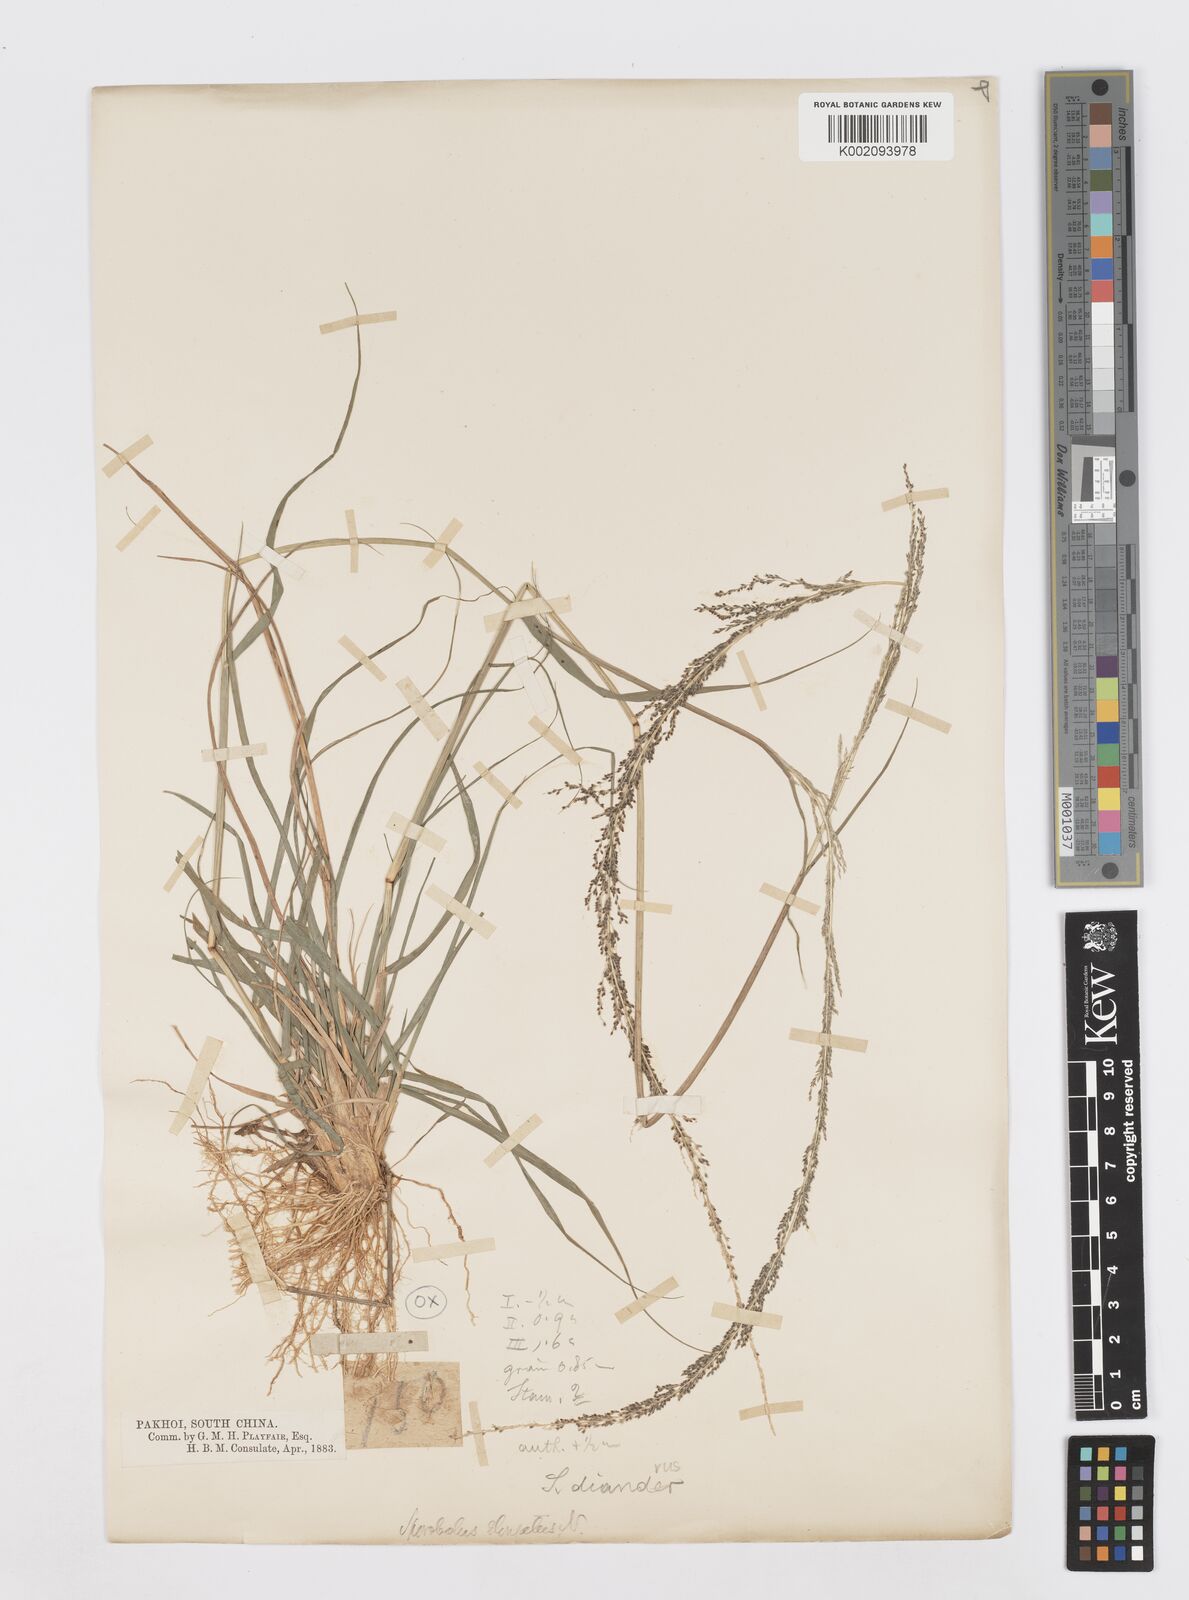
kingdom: Plantae
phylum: Tracheophyta
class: Liliopsida
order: Poales
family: Poaceae
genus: Sporobolus
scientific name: Sporobolus diandrus
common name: Tussock dropseed
